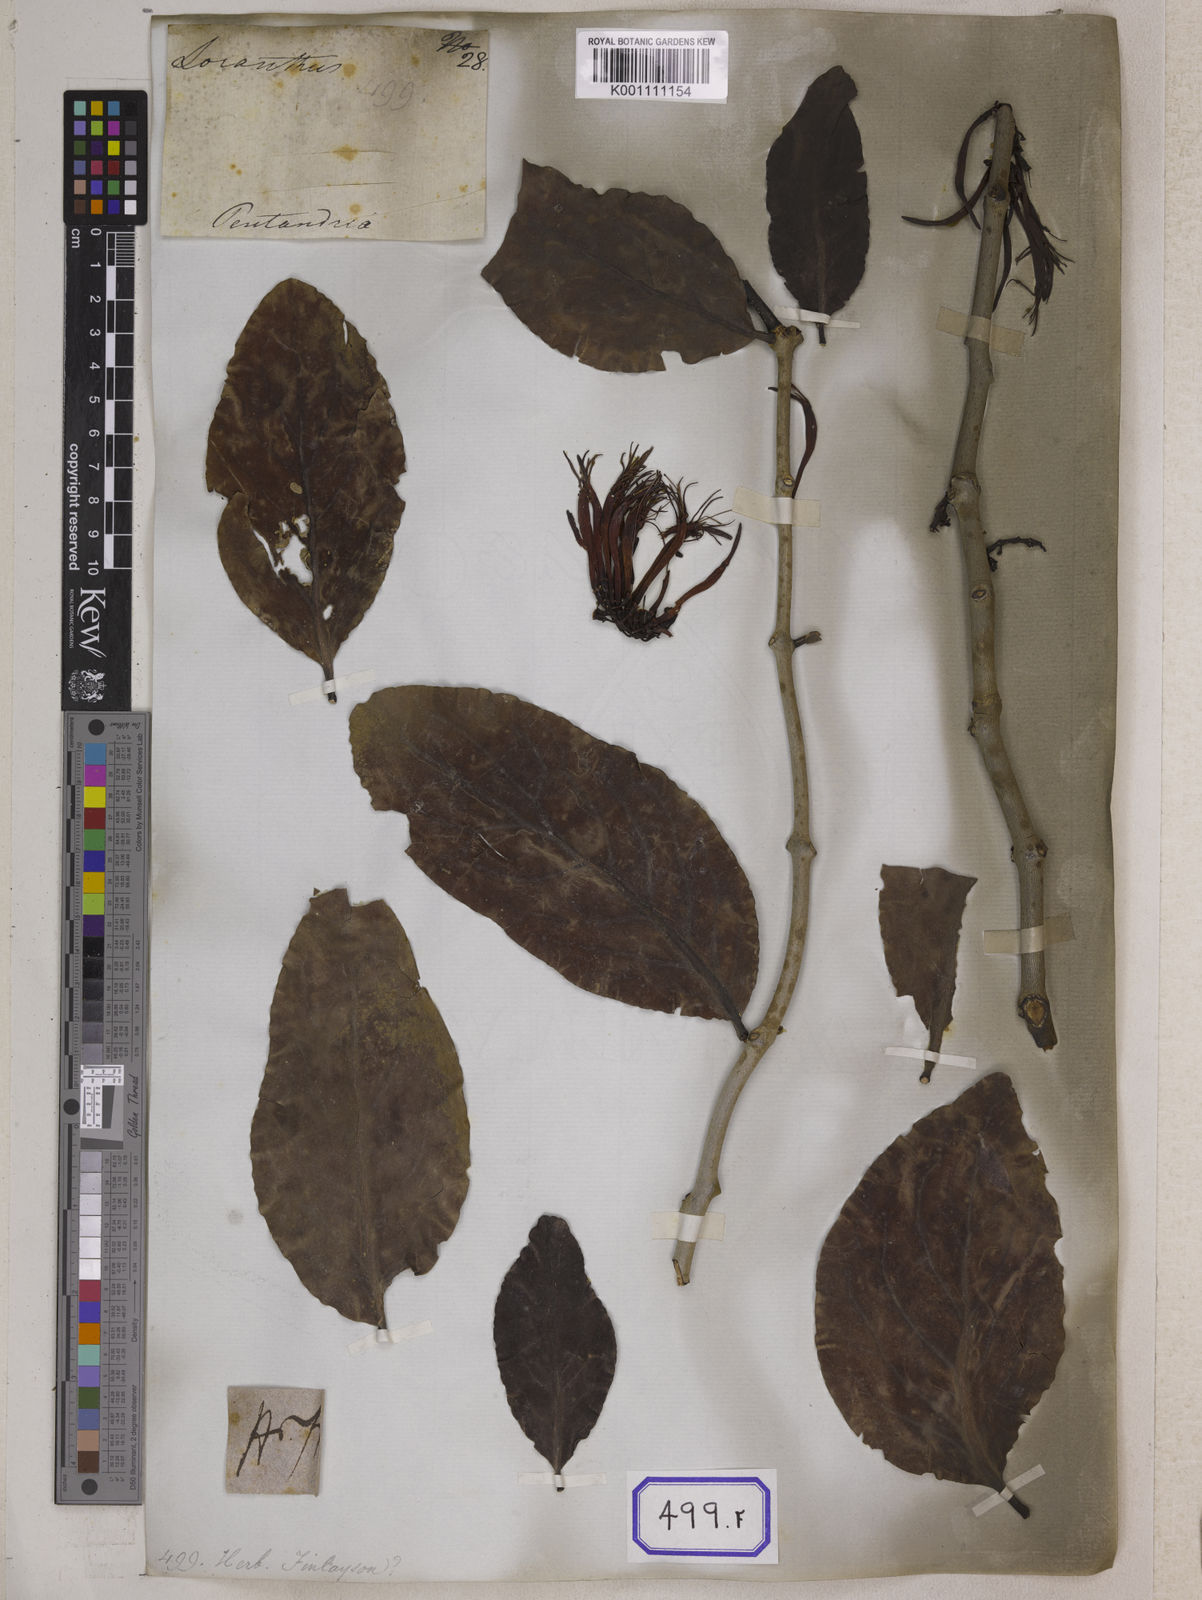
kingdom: Plantae
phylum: Tracheophyta
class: Magnoliopsida
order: Santalales
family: Loranthaceae
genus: Dendrophthoe
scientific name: Dendrophthoe falcata
